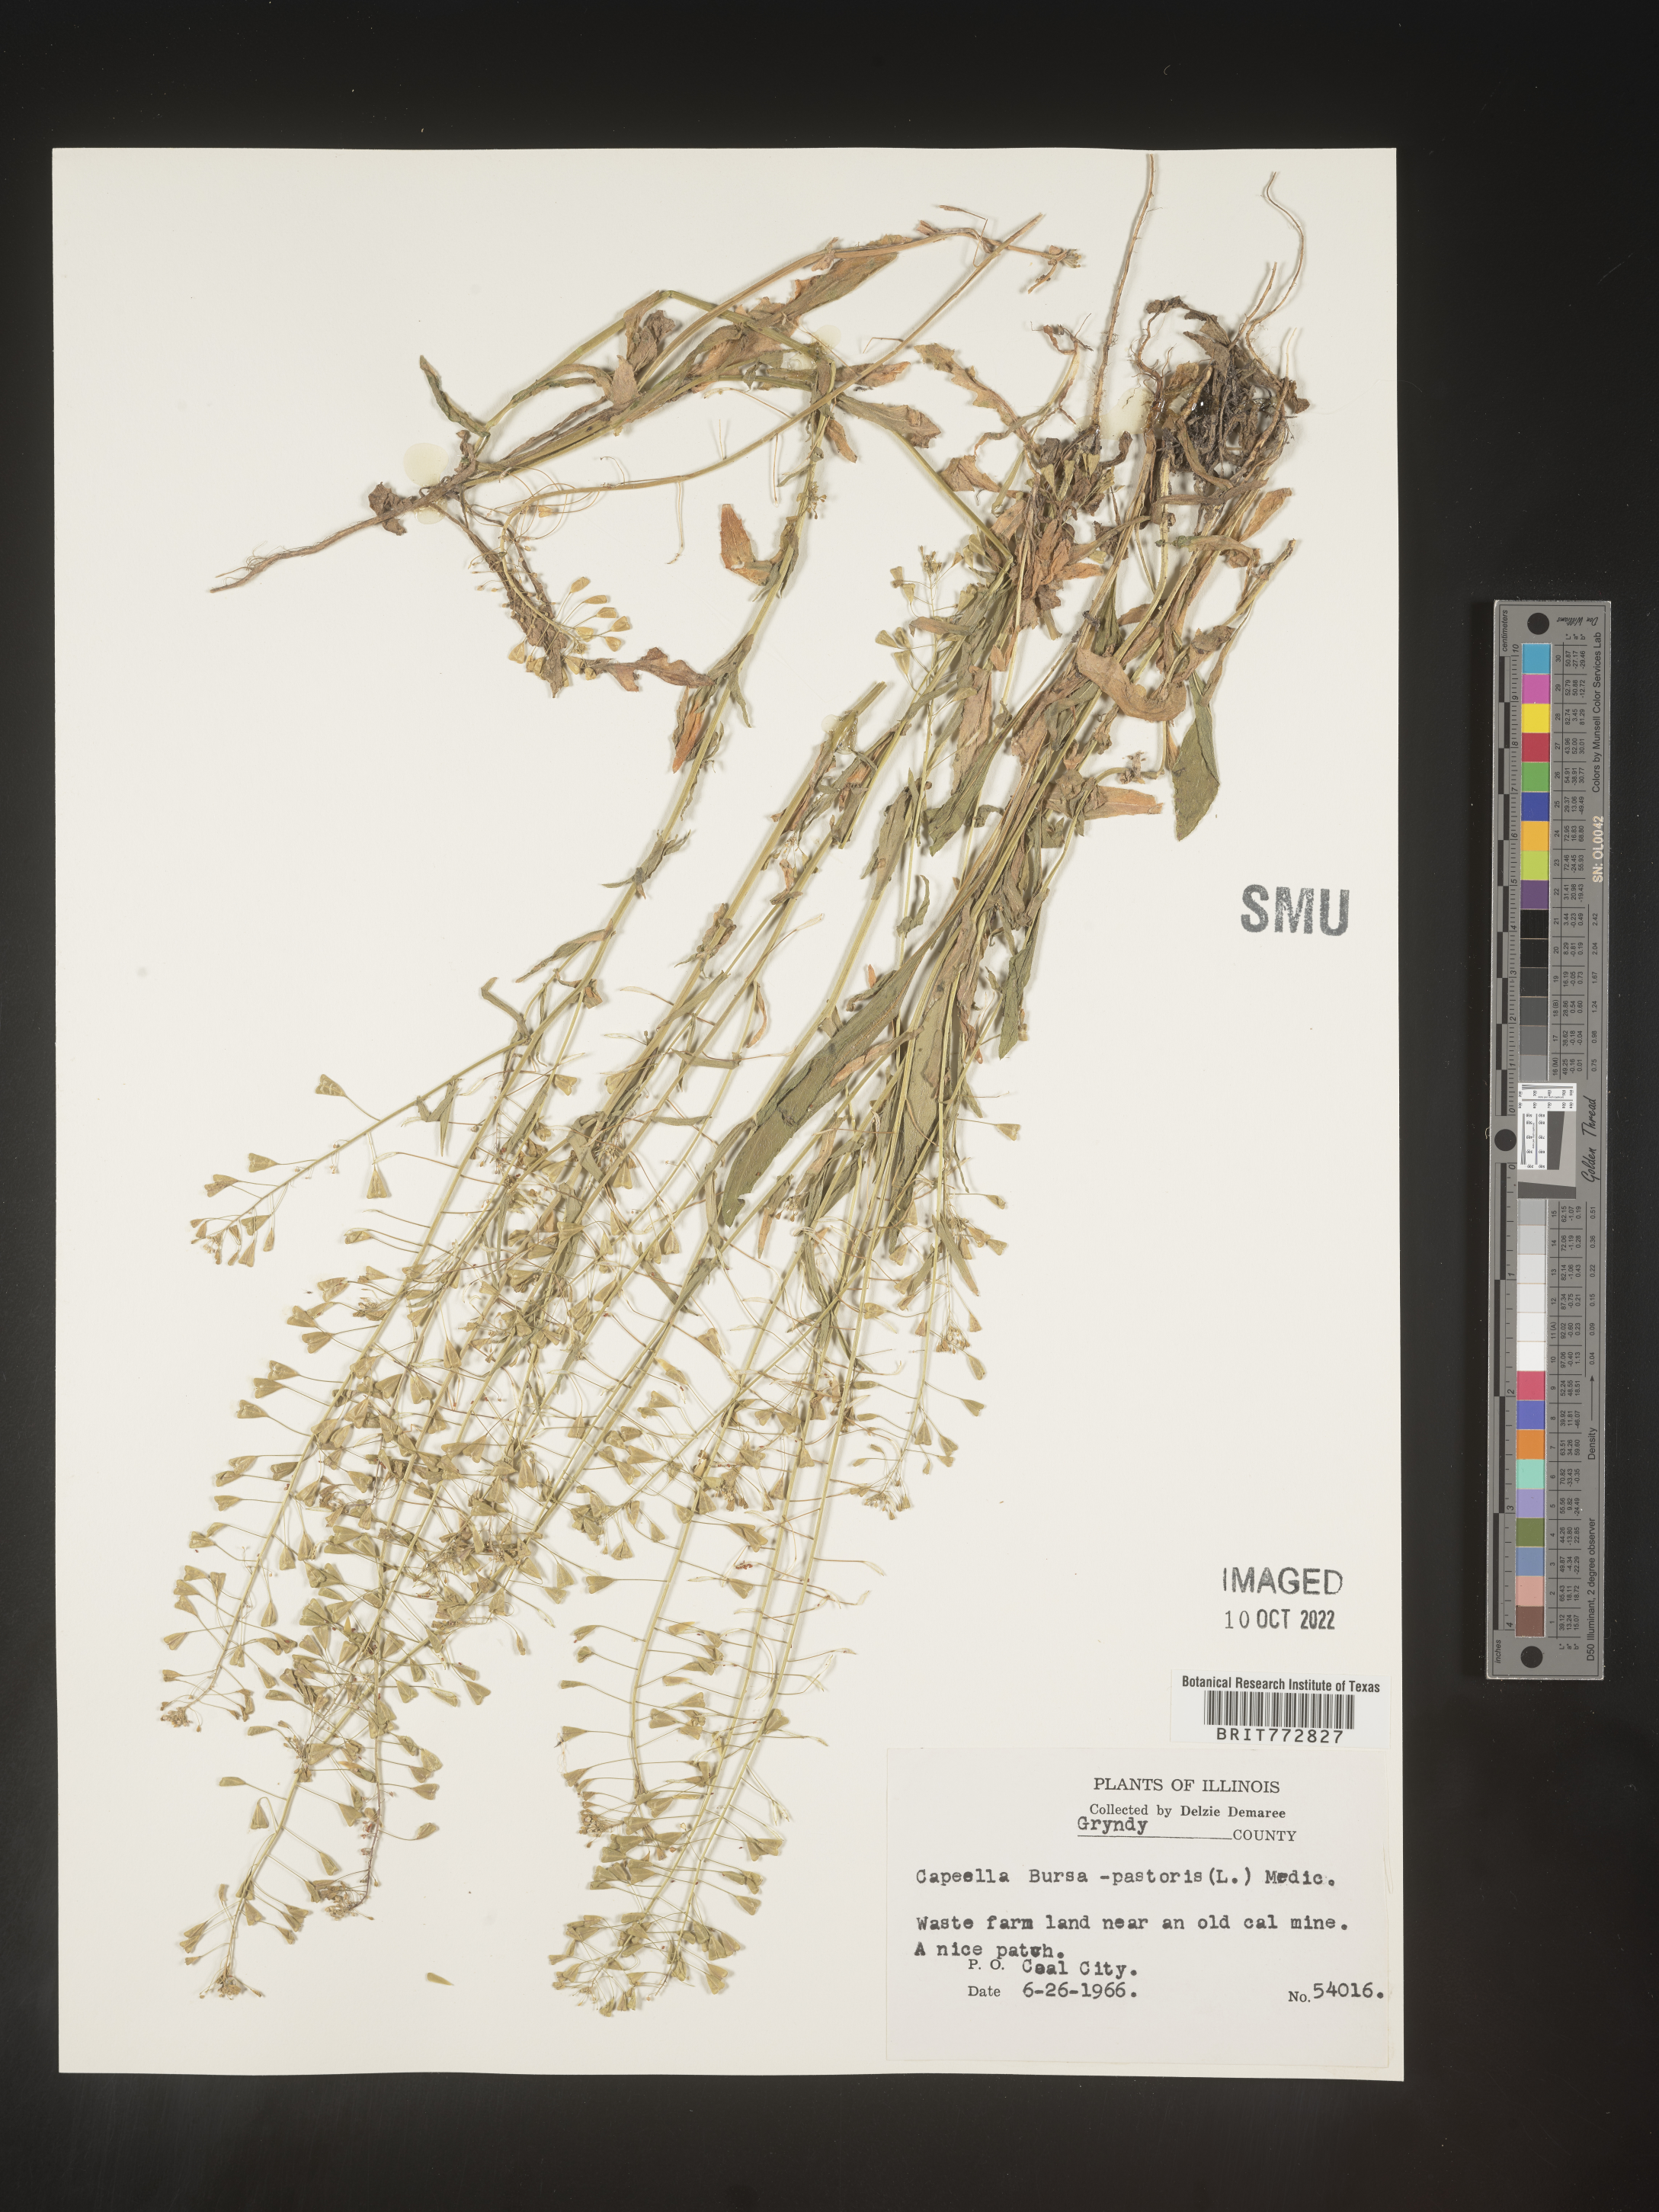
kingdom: Plantae
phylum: Tracheophyta
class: Magnoliopsida
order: Brassicales
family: Brassicaceae
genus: Capsella
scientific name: Capsella bursa-pastoris
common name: Shepherd's purse
